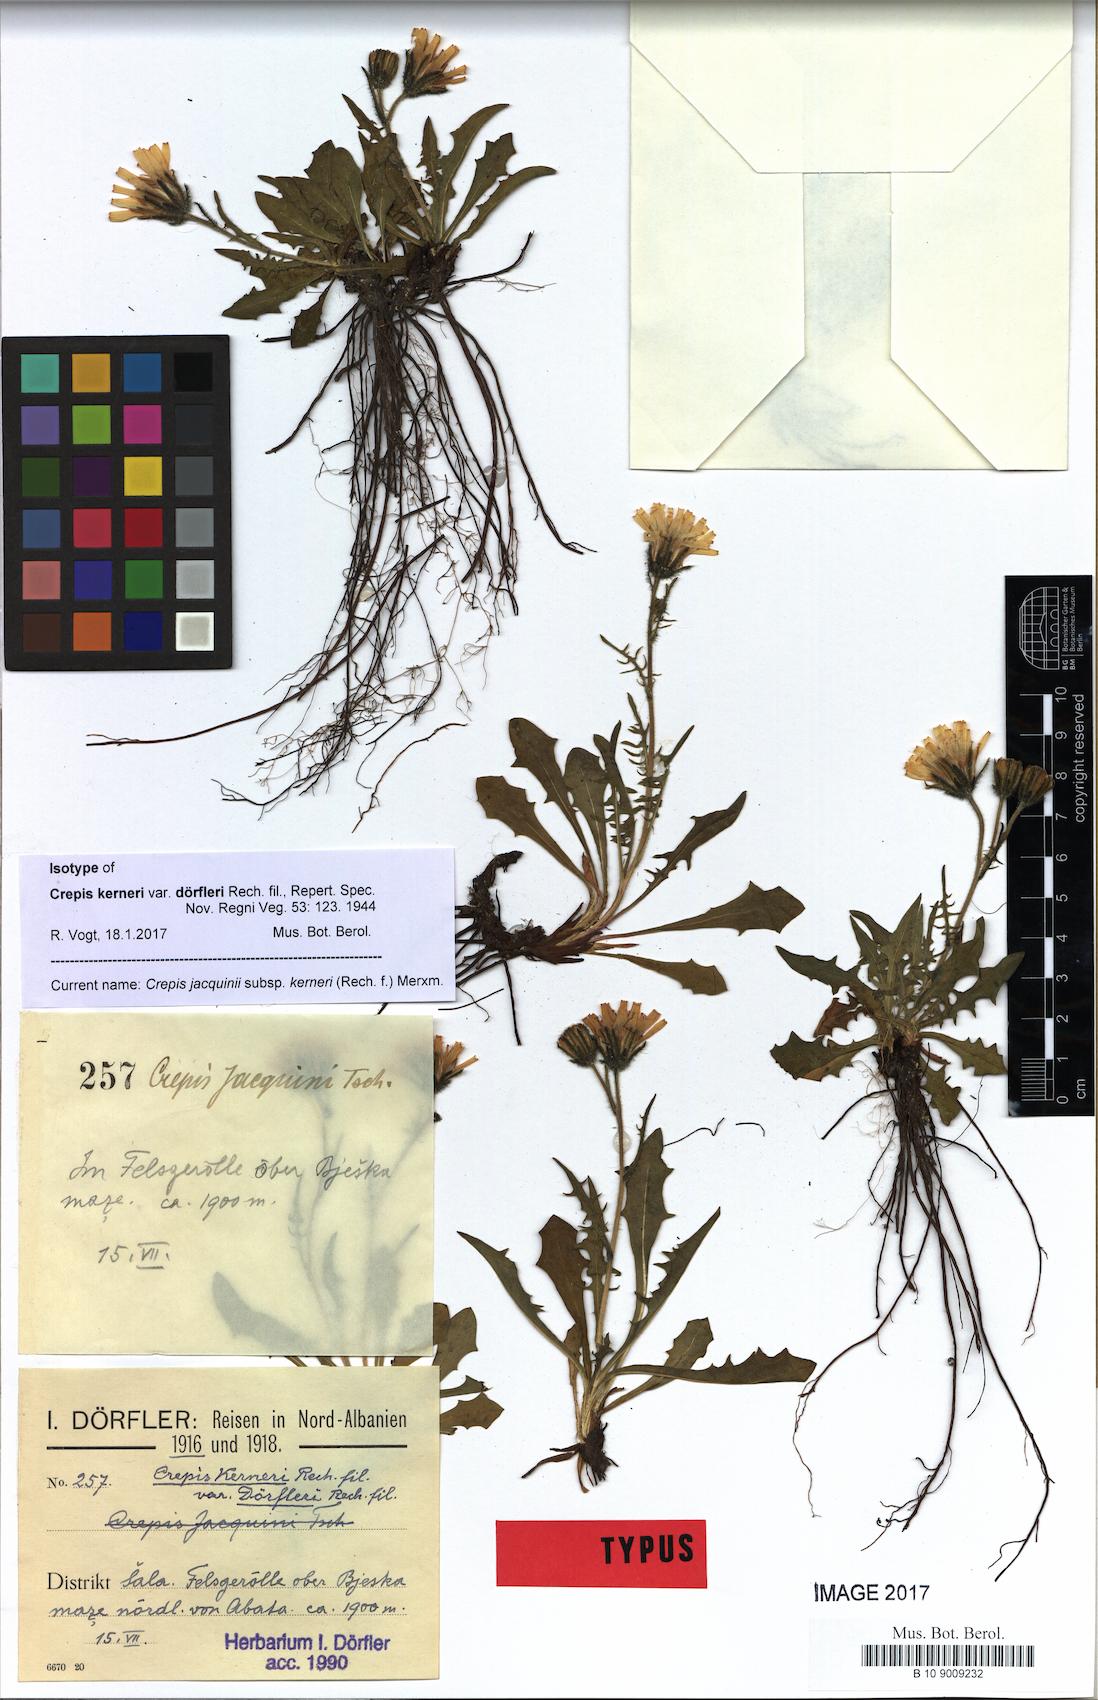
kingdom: Plantae
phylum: Tracheophyta
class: Magnoliopsida
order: Asterales
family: Asteraceae
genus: Crepis
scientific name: Crepis jacquinii
